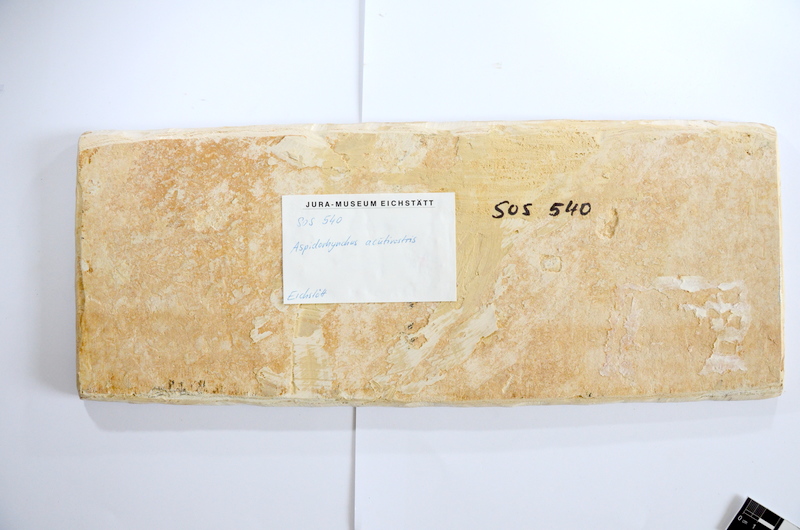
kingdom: Animalia
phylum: Chordata
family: Aspidorhynchidae
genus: Aspidorhynchus
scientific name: Aspidorhynchus acutirostris
